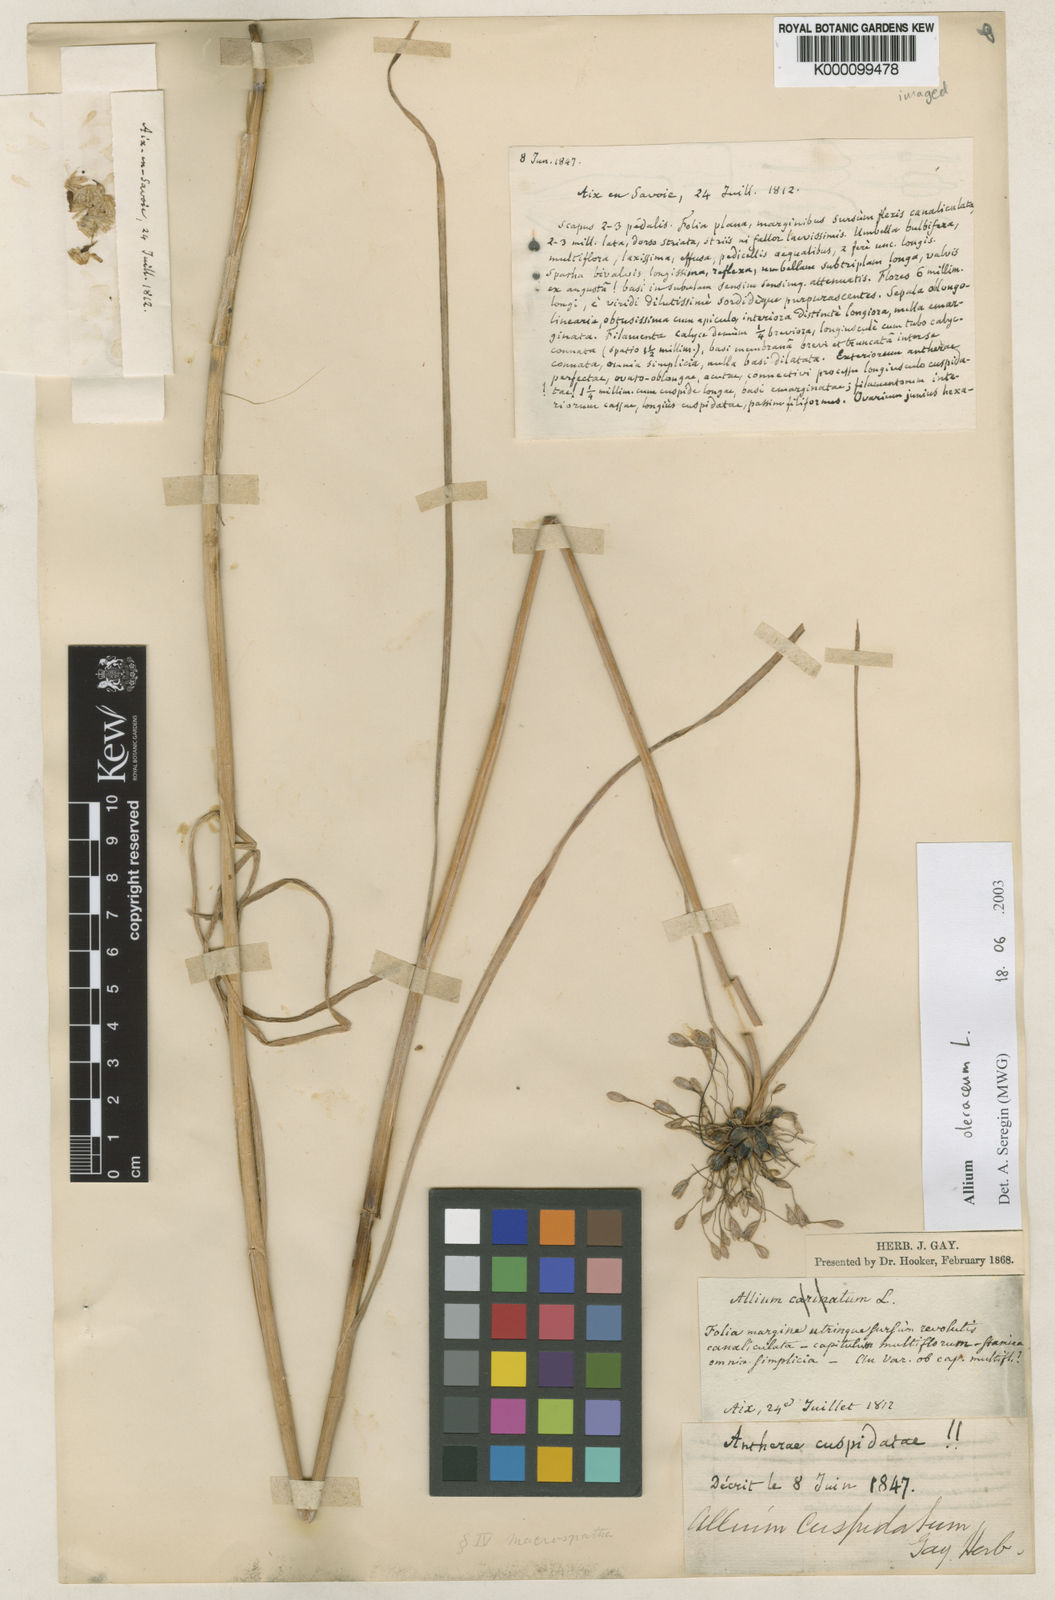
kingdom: Plantae
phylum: Tracheophyta
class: Liliopsida
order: Asparagales
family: Amaryllidaceae
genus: Allium
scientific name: Allium oleraceum
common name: Field garlic
